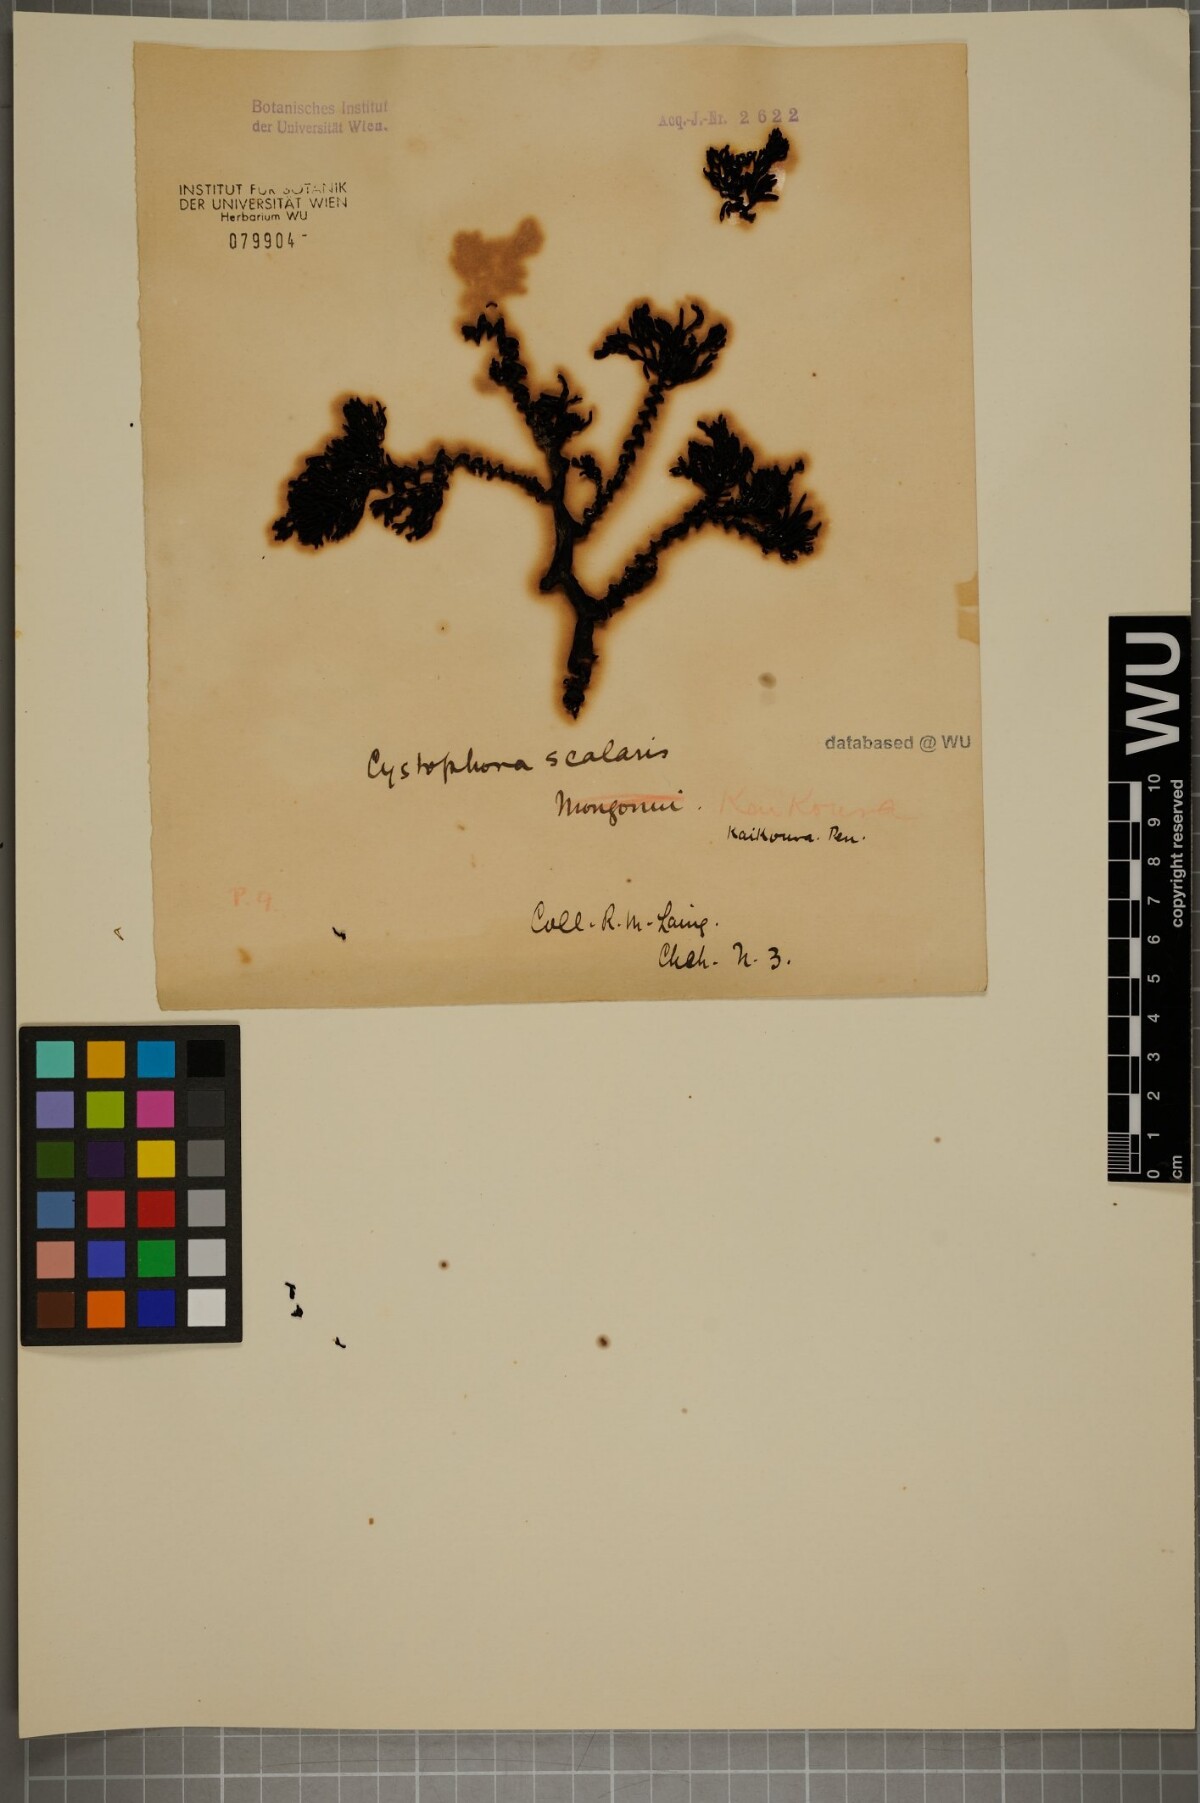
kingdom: Chromista
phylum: Ochrophyta
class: Phaeophyceae
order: Fucales
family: Sargassaceae
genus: Cystophora
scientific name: Cystophora scalaris
